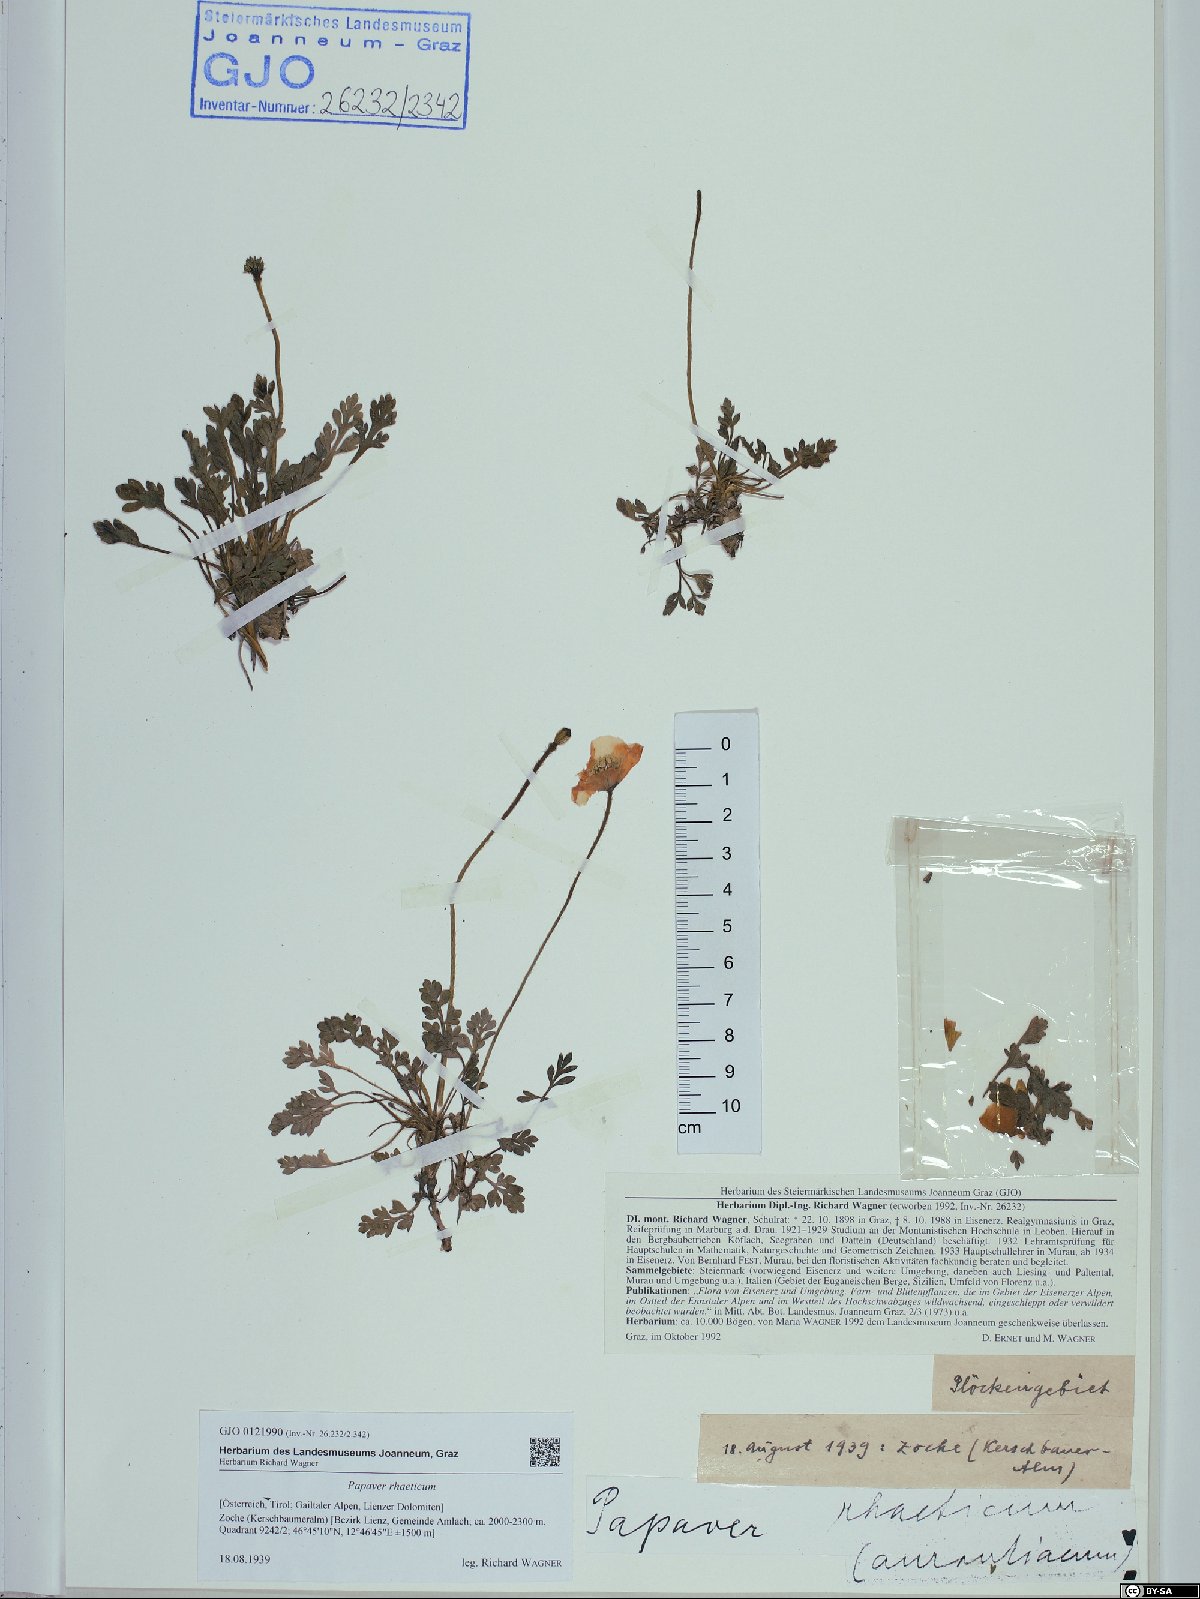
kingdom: Plantae
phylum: Tracheophyta
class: Magnoliopsida
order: Ranunculales
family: Papaveraceae
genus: Papaver
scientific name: Papaver alpinum
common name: Austrian poppy
